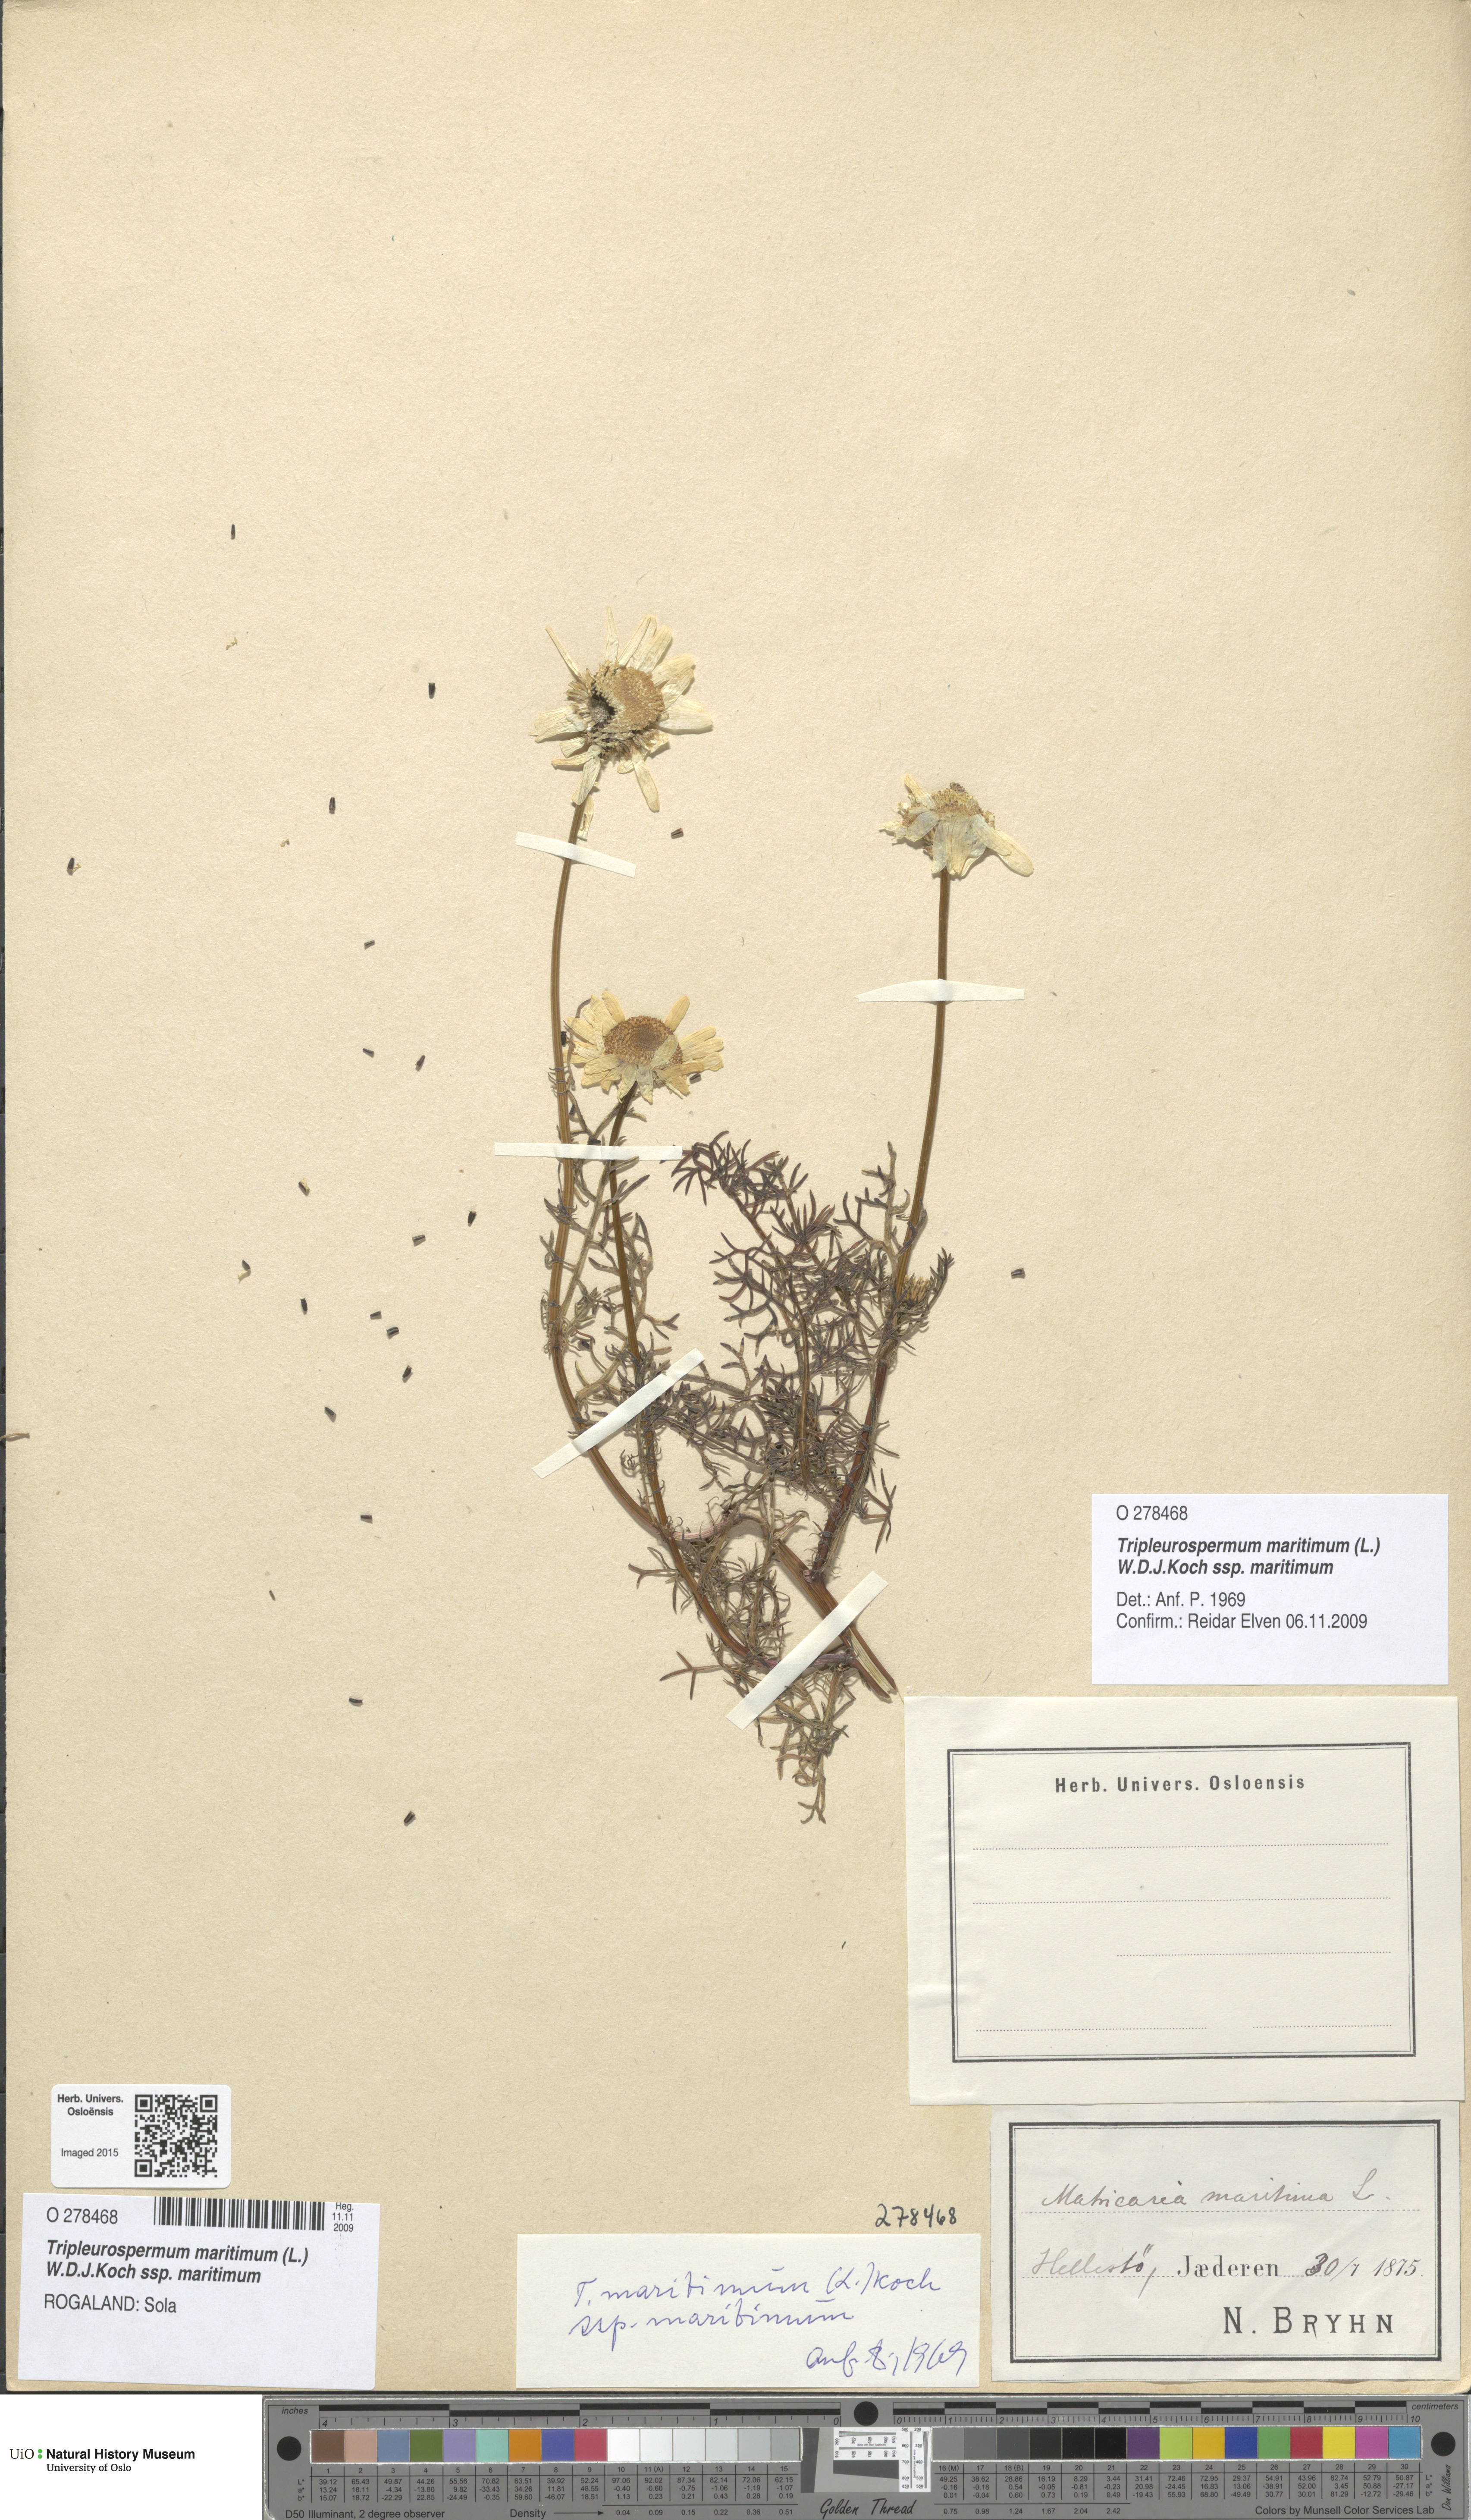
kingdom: Plantae
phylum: Tracheophyta
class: Magnoliopsida
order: Asterales
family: Asteraceae
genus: Tripleurospermum
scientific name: Tripleurospermum maritimum
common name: Sea mayweed
